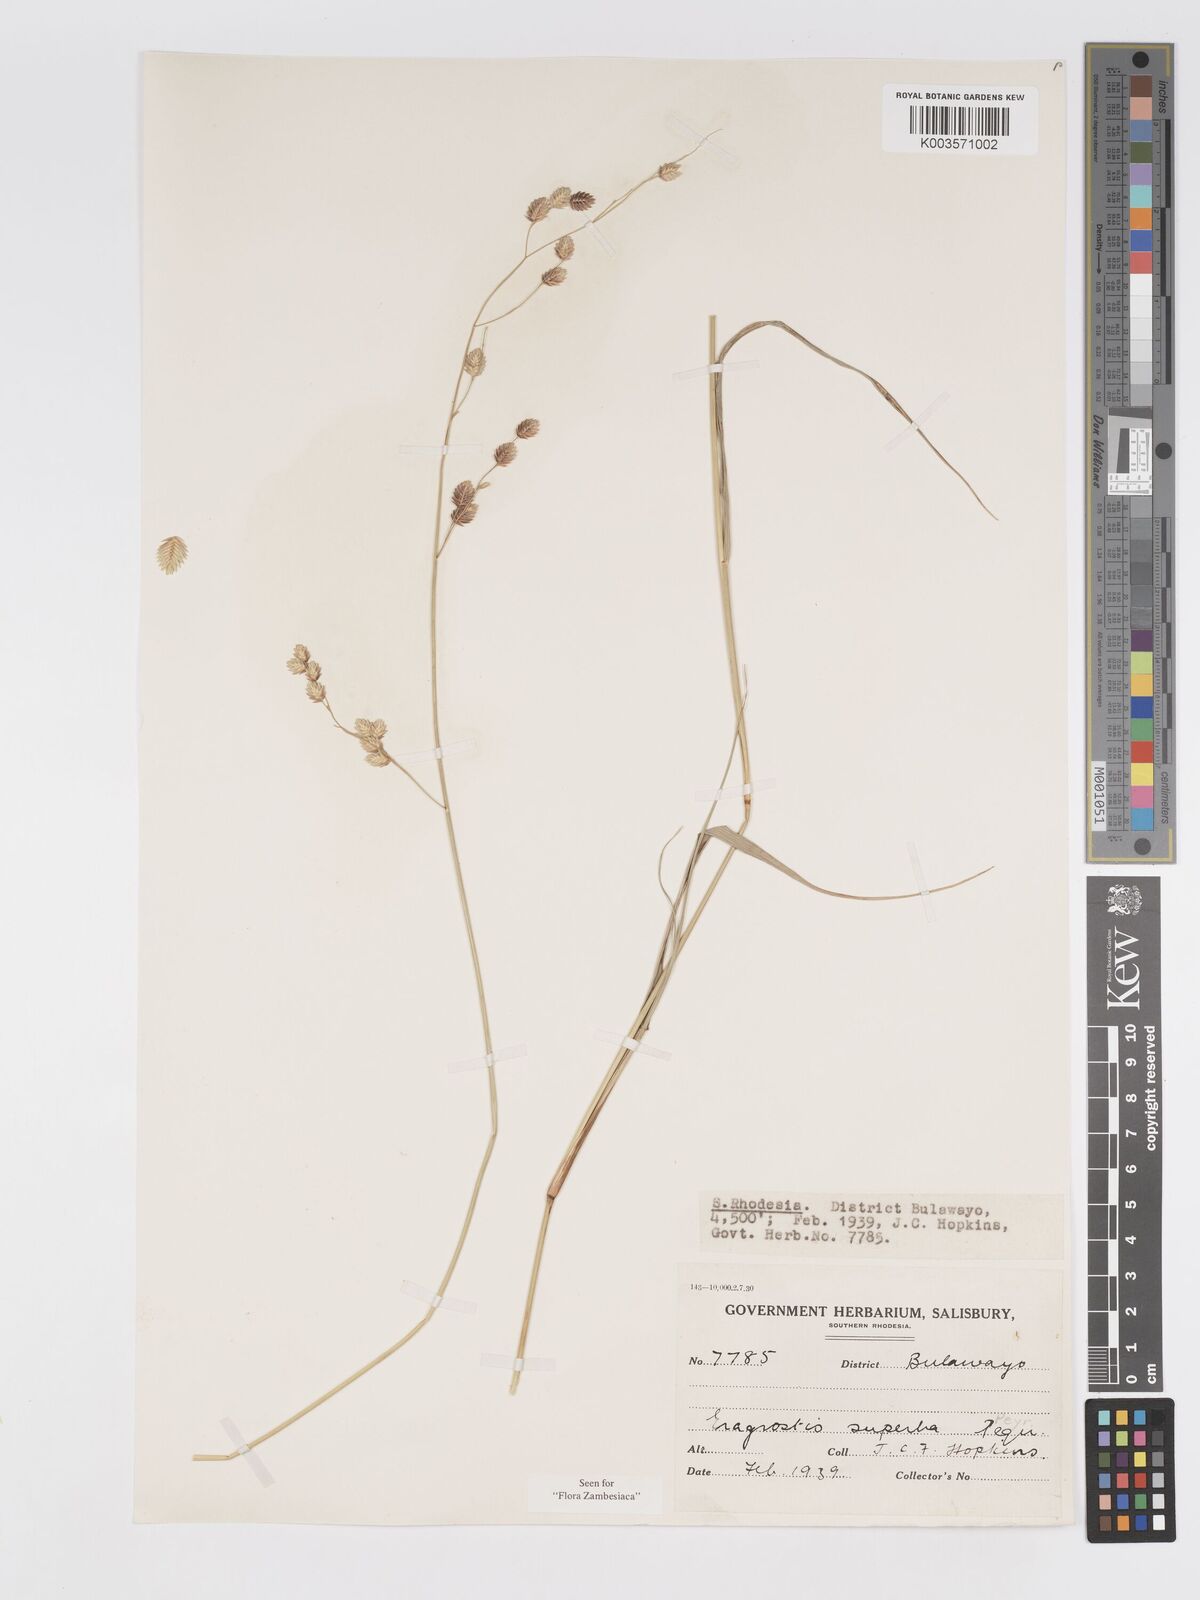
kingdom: Plantae
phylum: Tracheophyta
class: Liliopsida
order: Poales
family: Poaceae
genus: Eragrostis
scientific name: Eragrostis superba
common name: Wilman lovegrass
